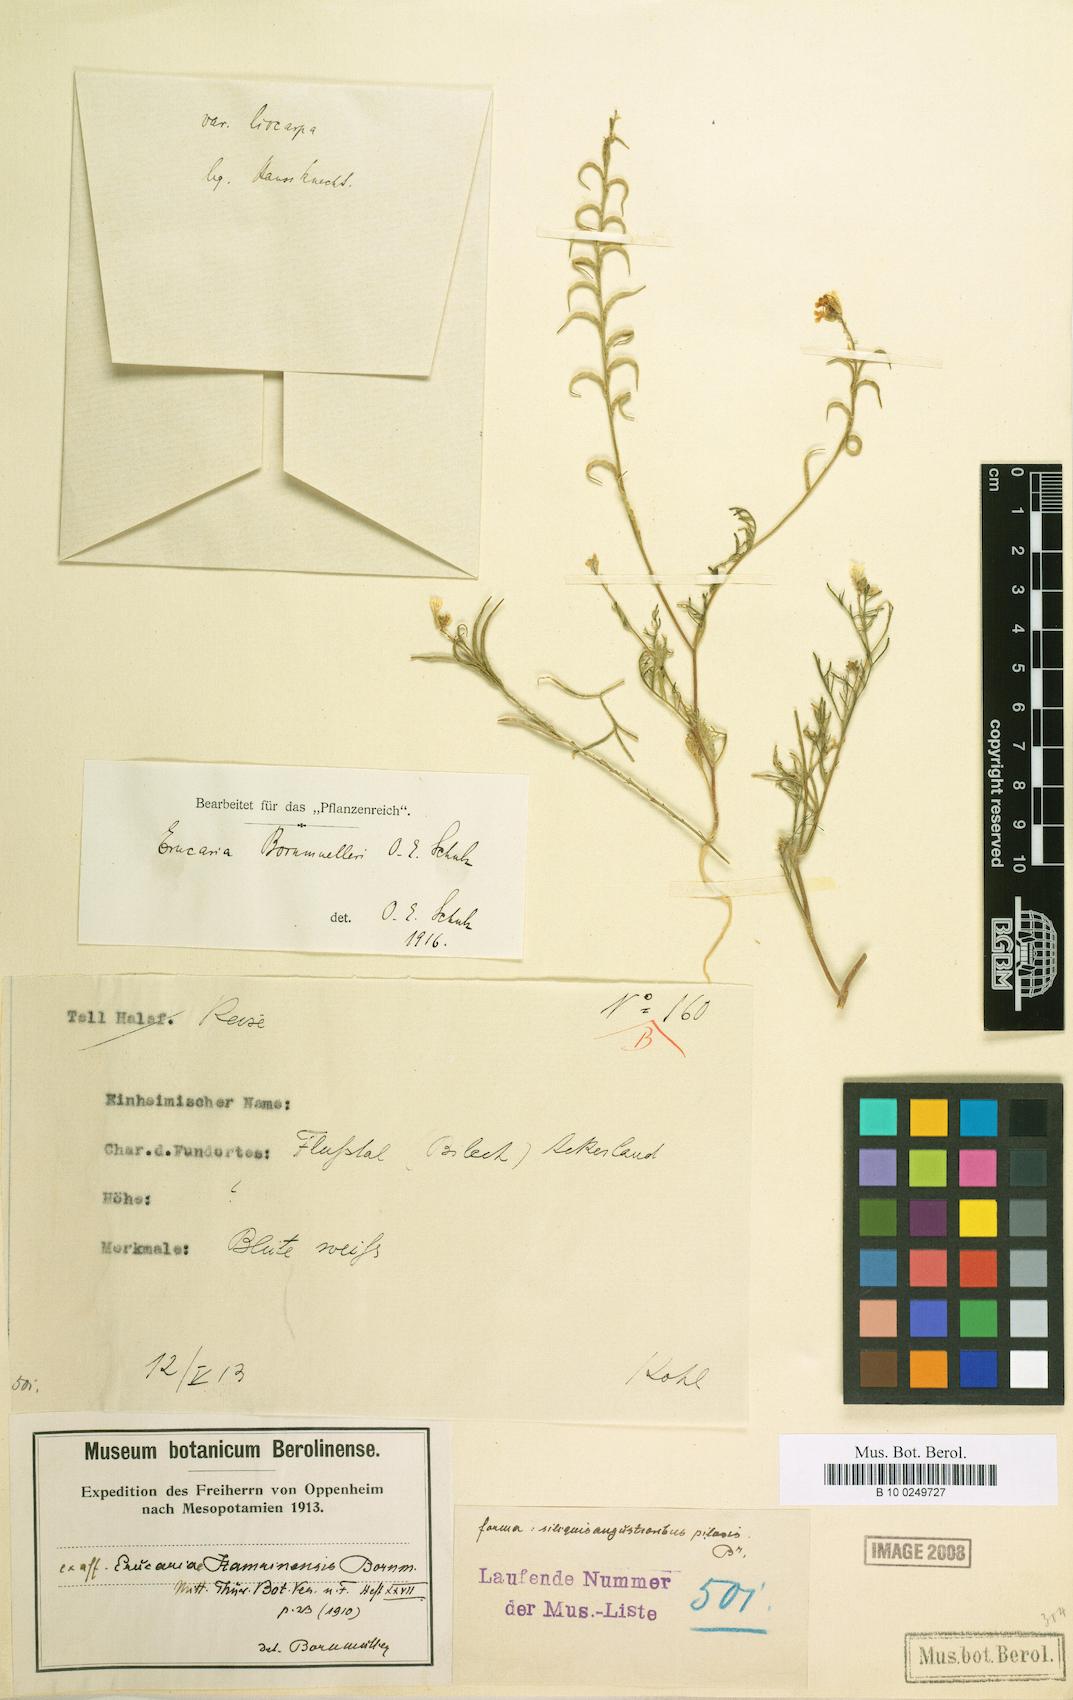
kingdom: Plantae
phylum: Tracheophyta
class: Magnoliopsida
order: Brassicales
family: Brassicaceae
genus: Erucaria
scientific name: Erucaria bornmuelleri
